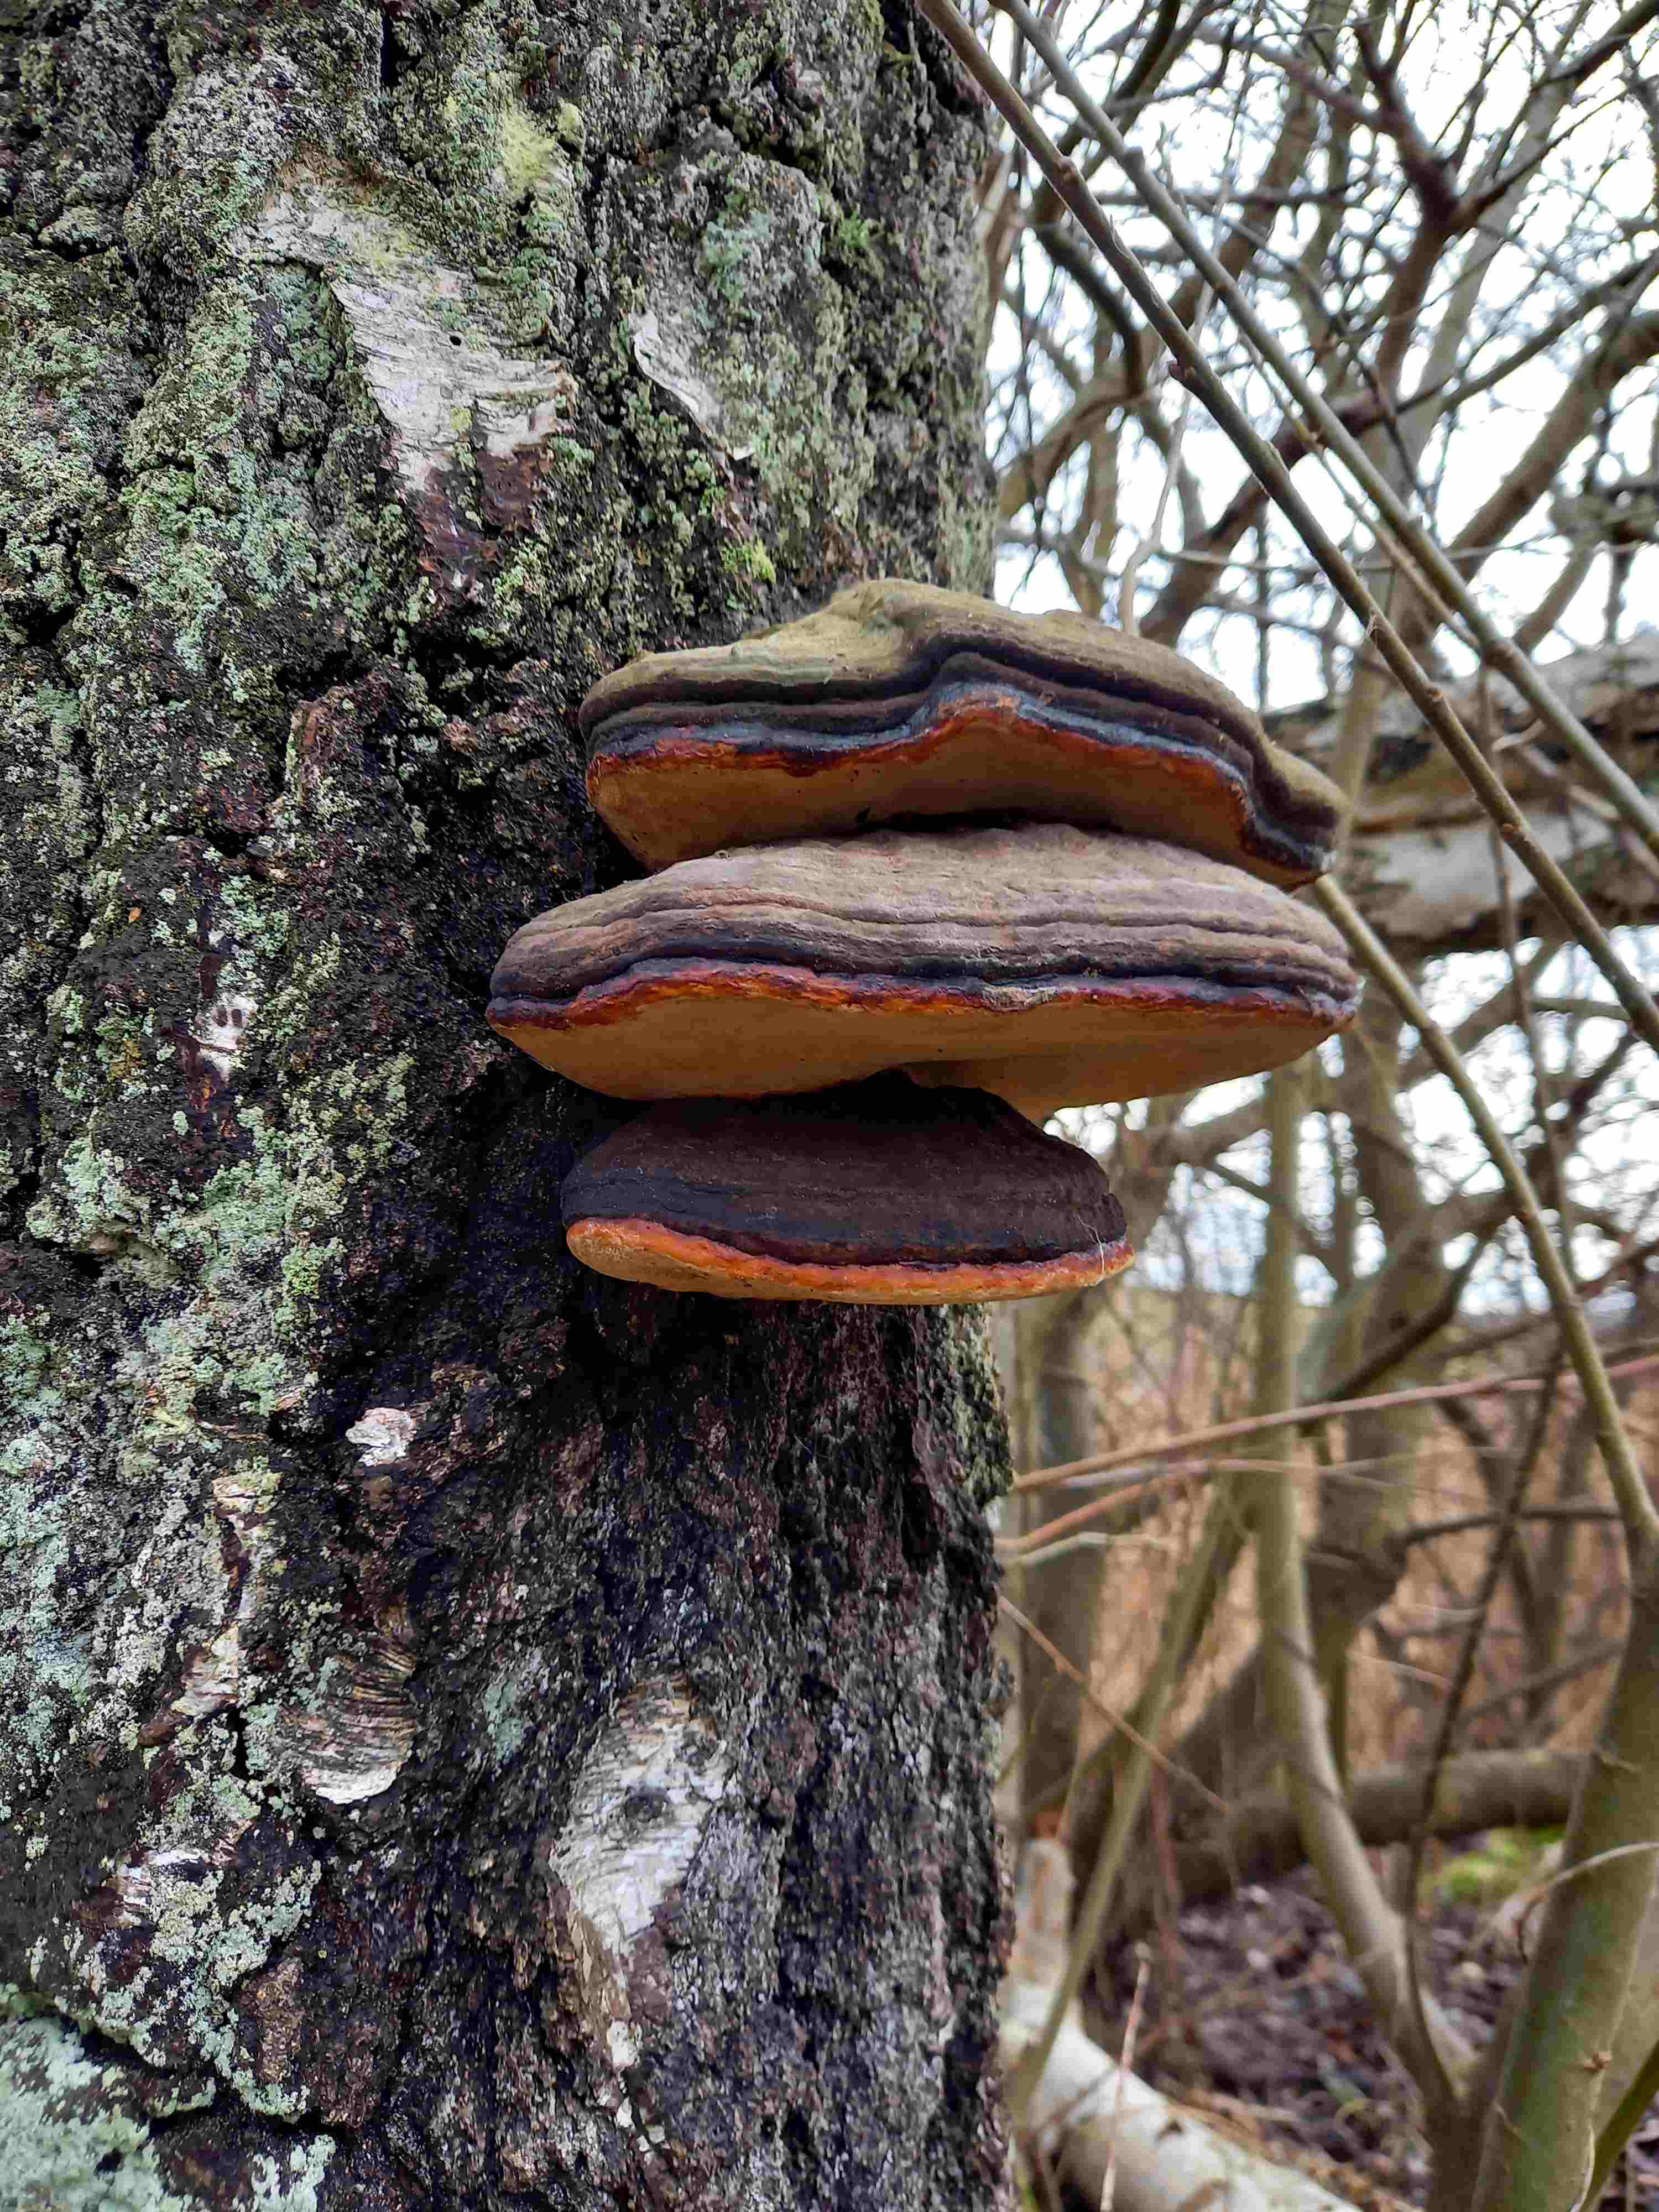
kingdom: Fungi
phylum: Basidiomycota
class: Agaricomycetes
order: Polyporales
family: Fomitopsidaceae
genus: Fomitopsis
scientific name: Fomitopsis pinicola
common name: randbæltet hovporesvamp
